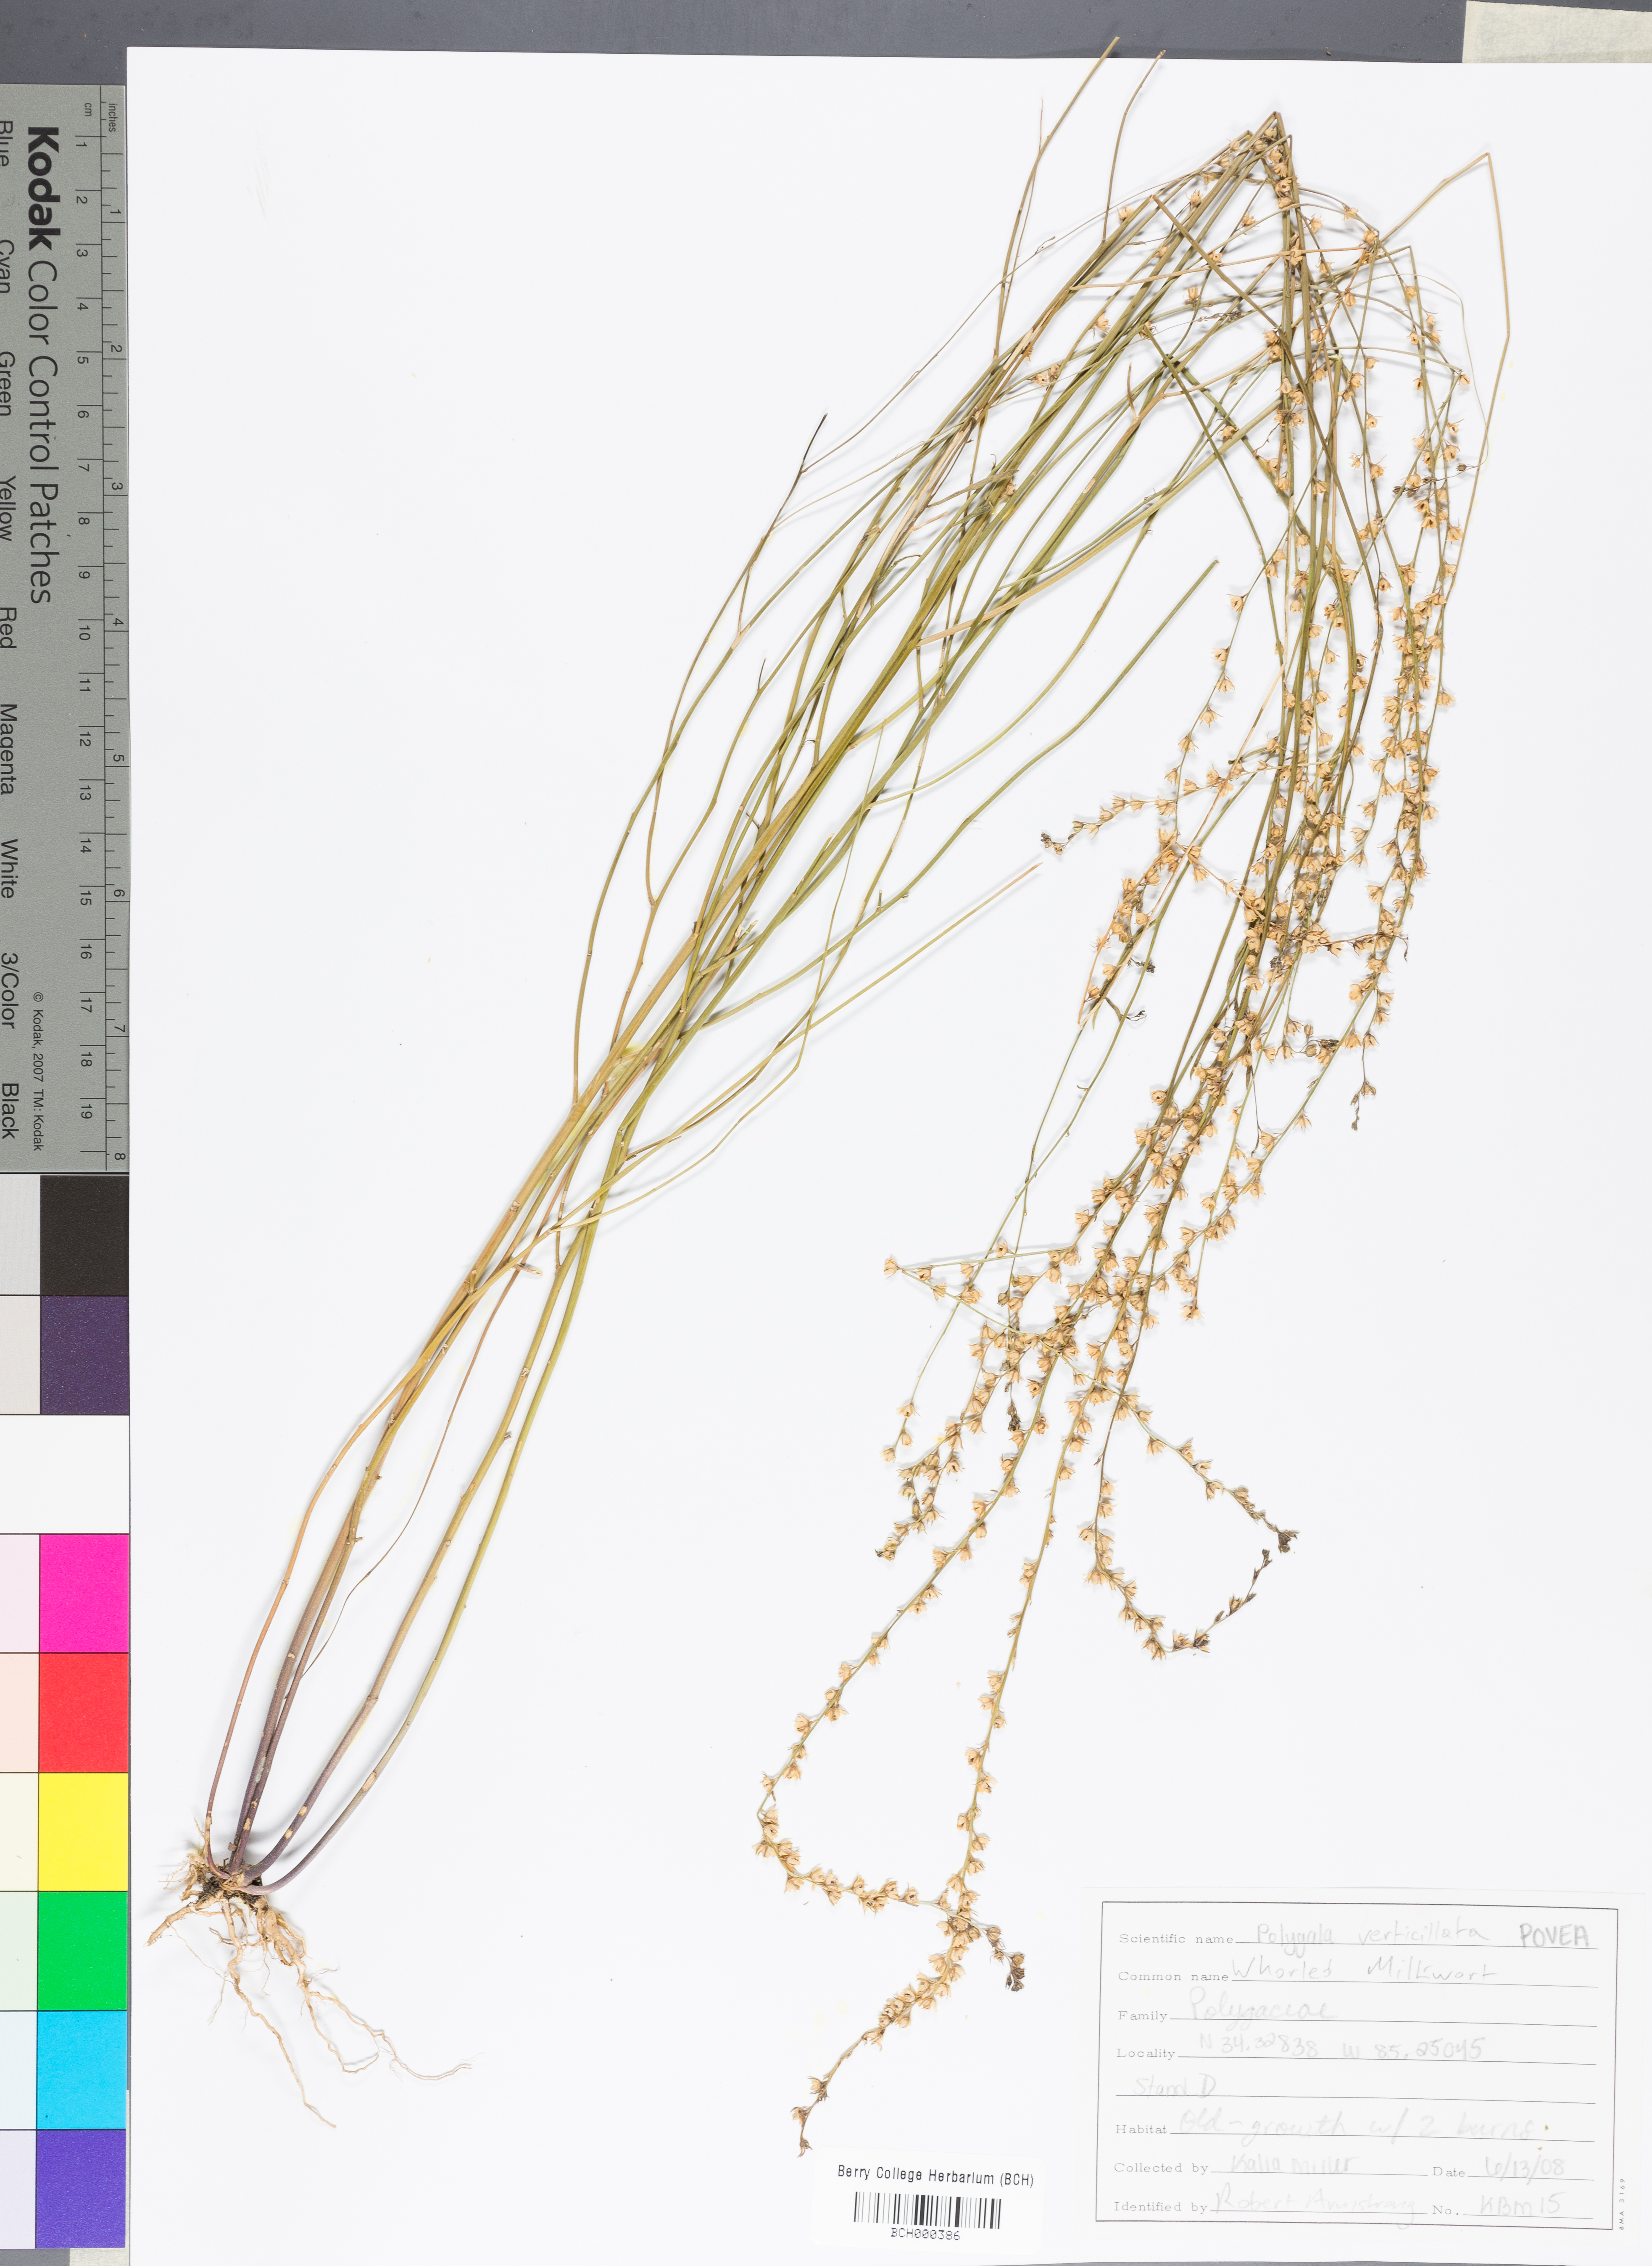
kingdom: Plantae
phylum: Tracheophyta
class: Magnoliopsida
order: Fabales
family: Polygalaceae
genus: Polygala
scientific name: Polygala ambigua
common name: Alternate milkwort
